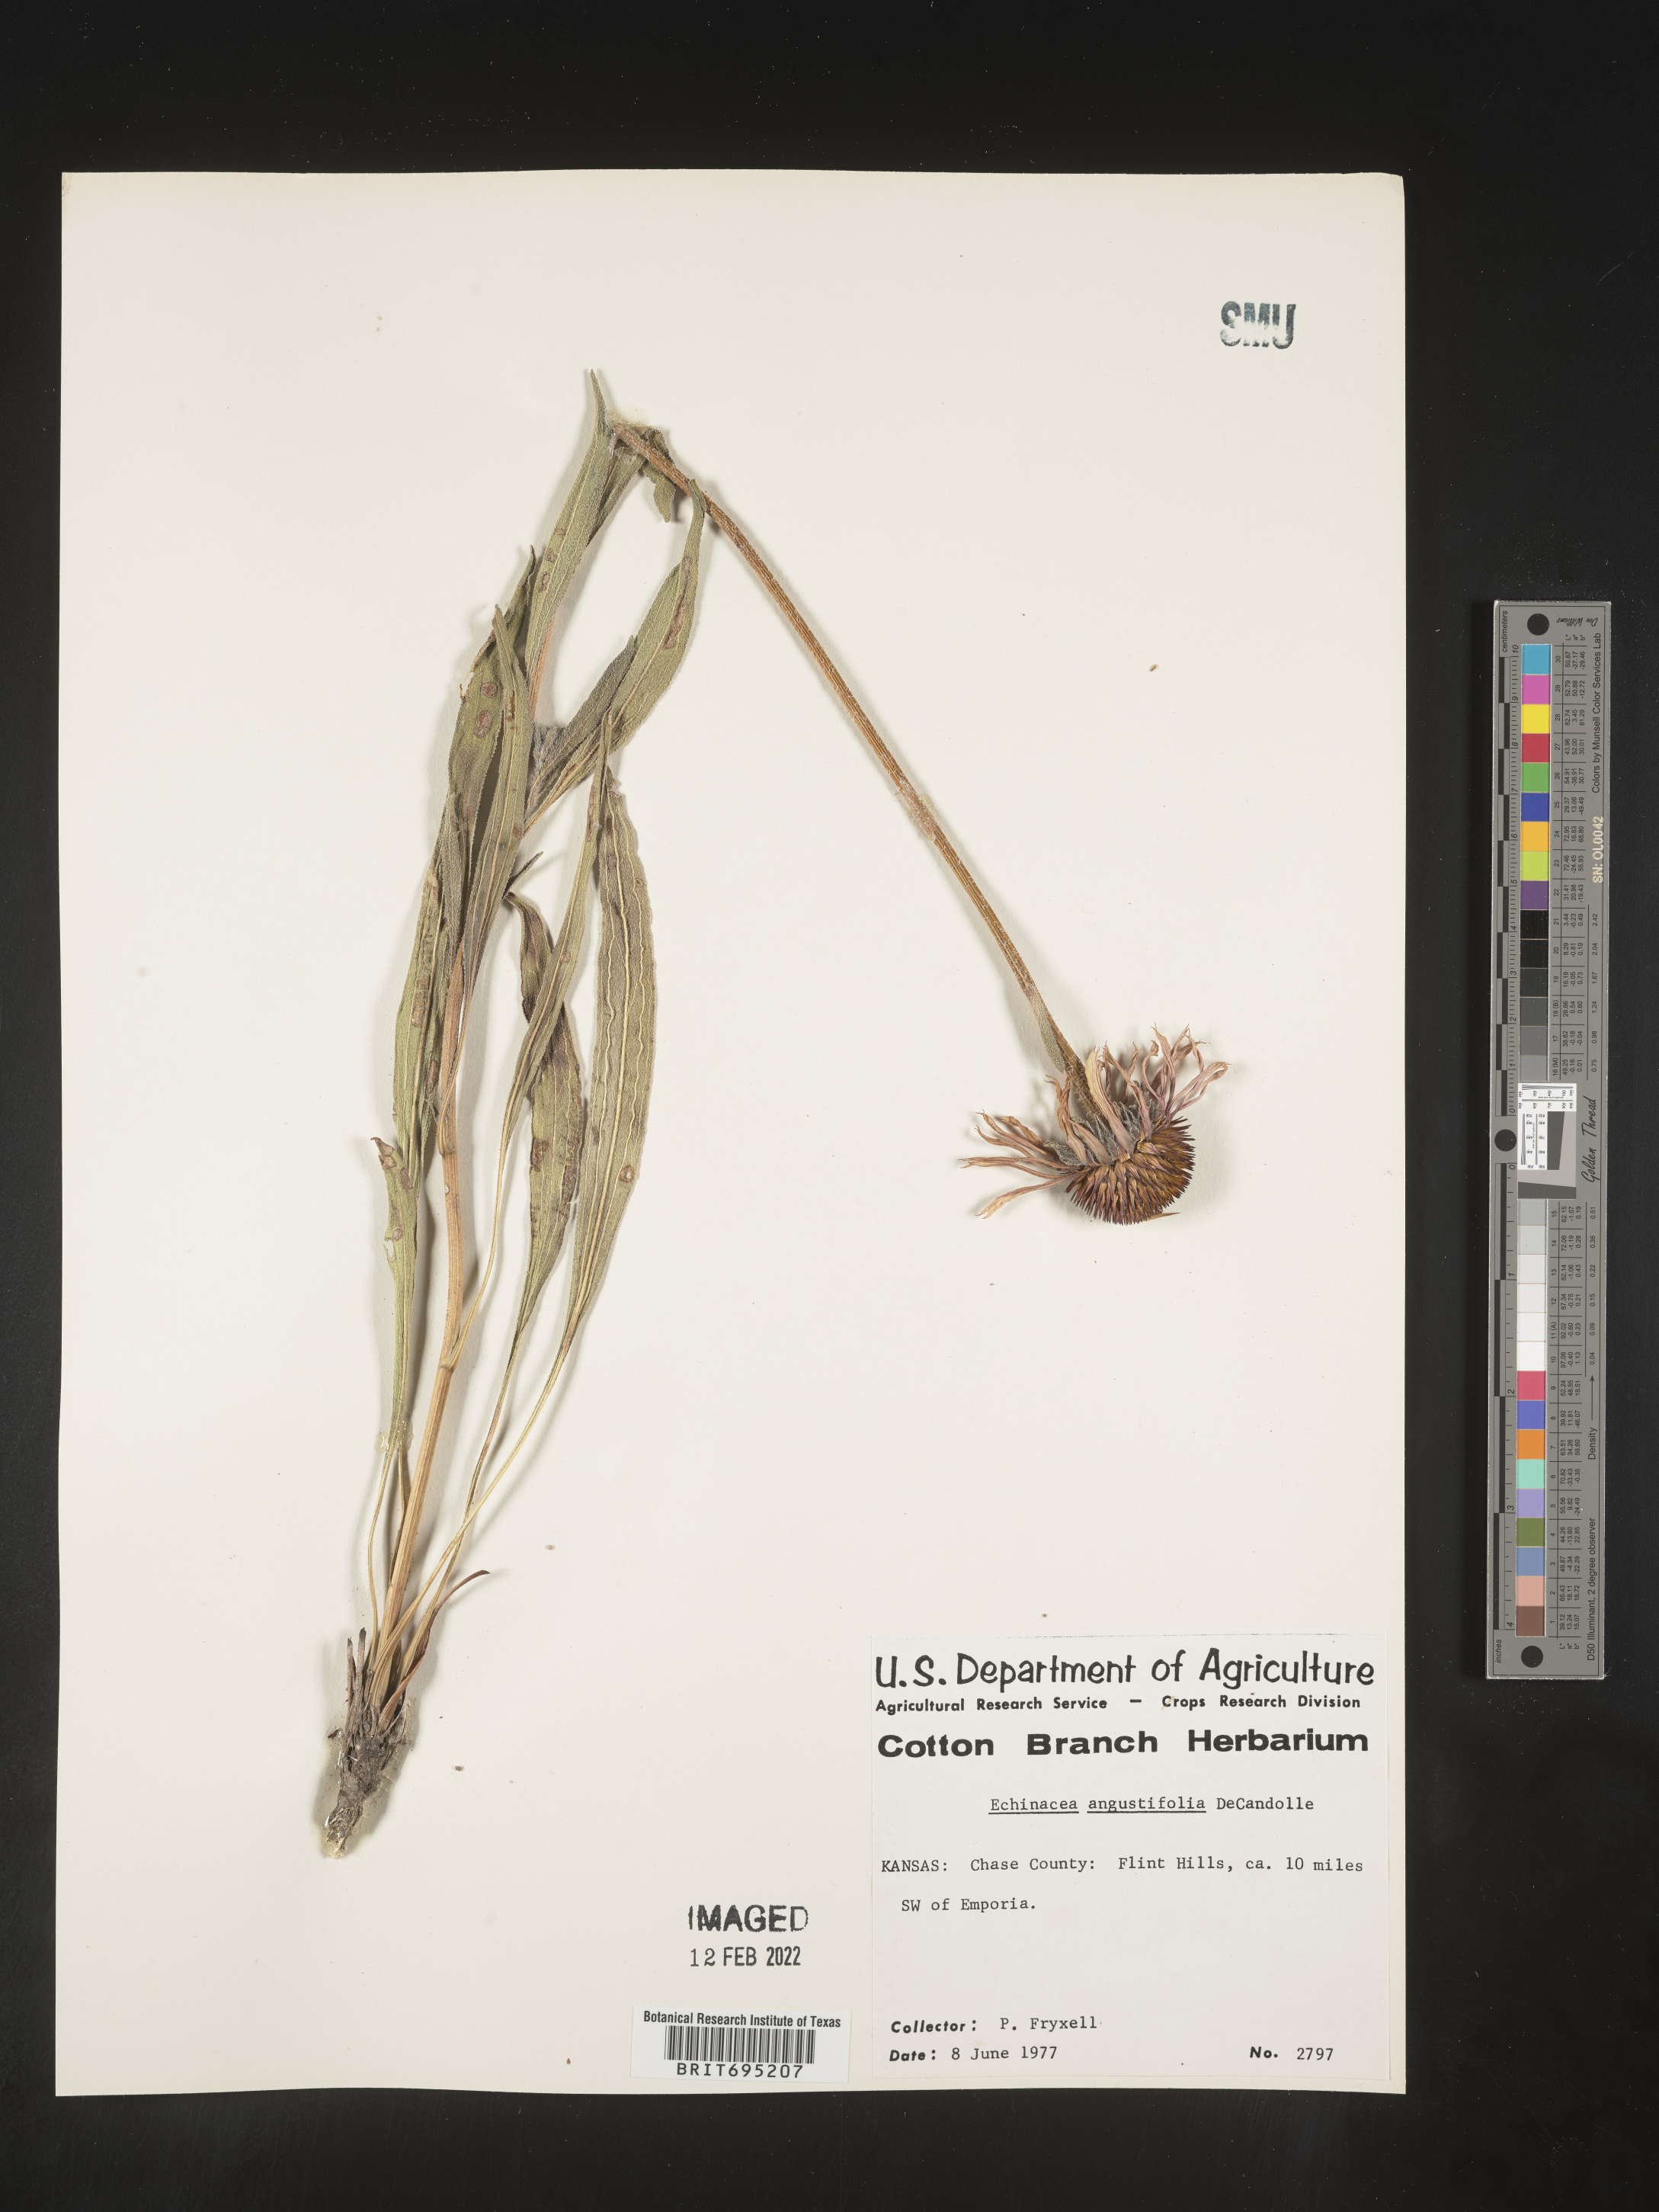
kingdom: Plantae
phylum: Tracheophyta
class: Magnoliopsida
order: Asterales
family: Asteraceae
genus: Echinacea
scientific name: Echinacea angustifolia
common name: Black-sampson echinacea
